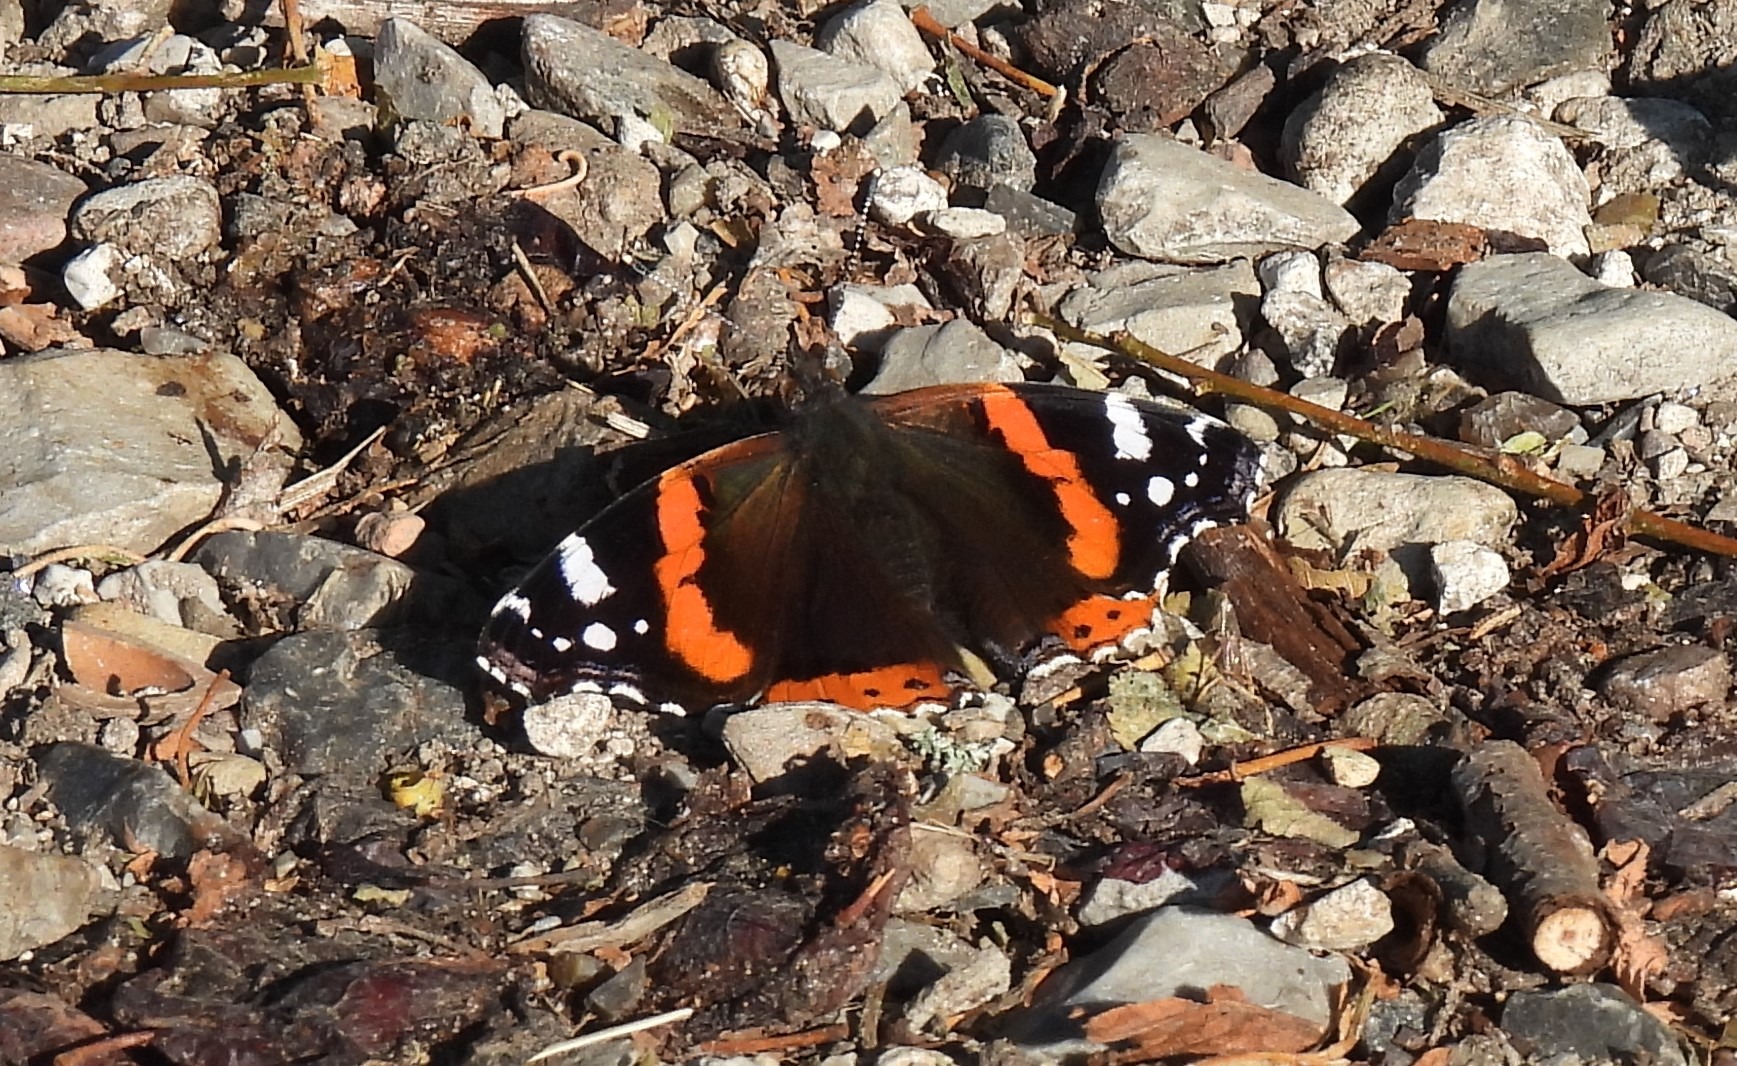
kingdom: Animalia
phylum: Arthropoda
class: Insecta
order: Lepidoptera
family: Nymphalidae
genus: Vanessa
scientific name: Vanessa atalanta
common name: Admiral
